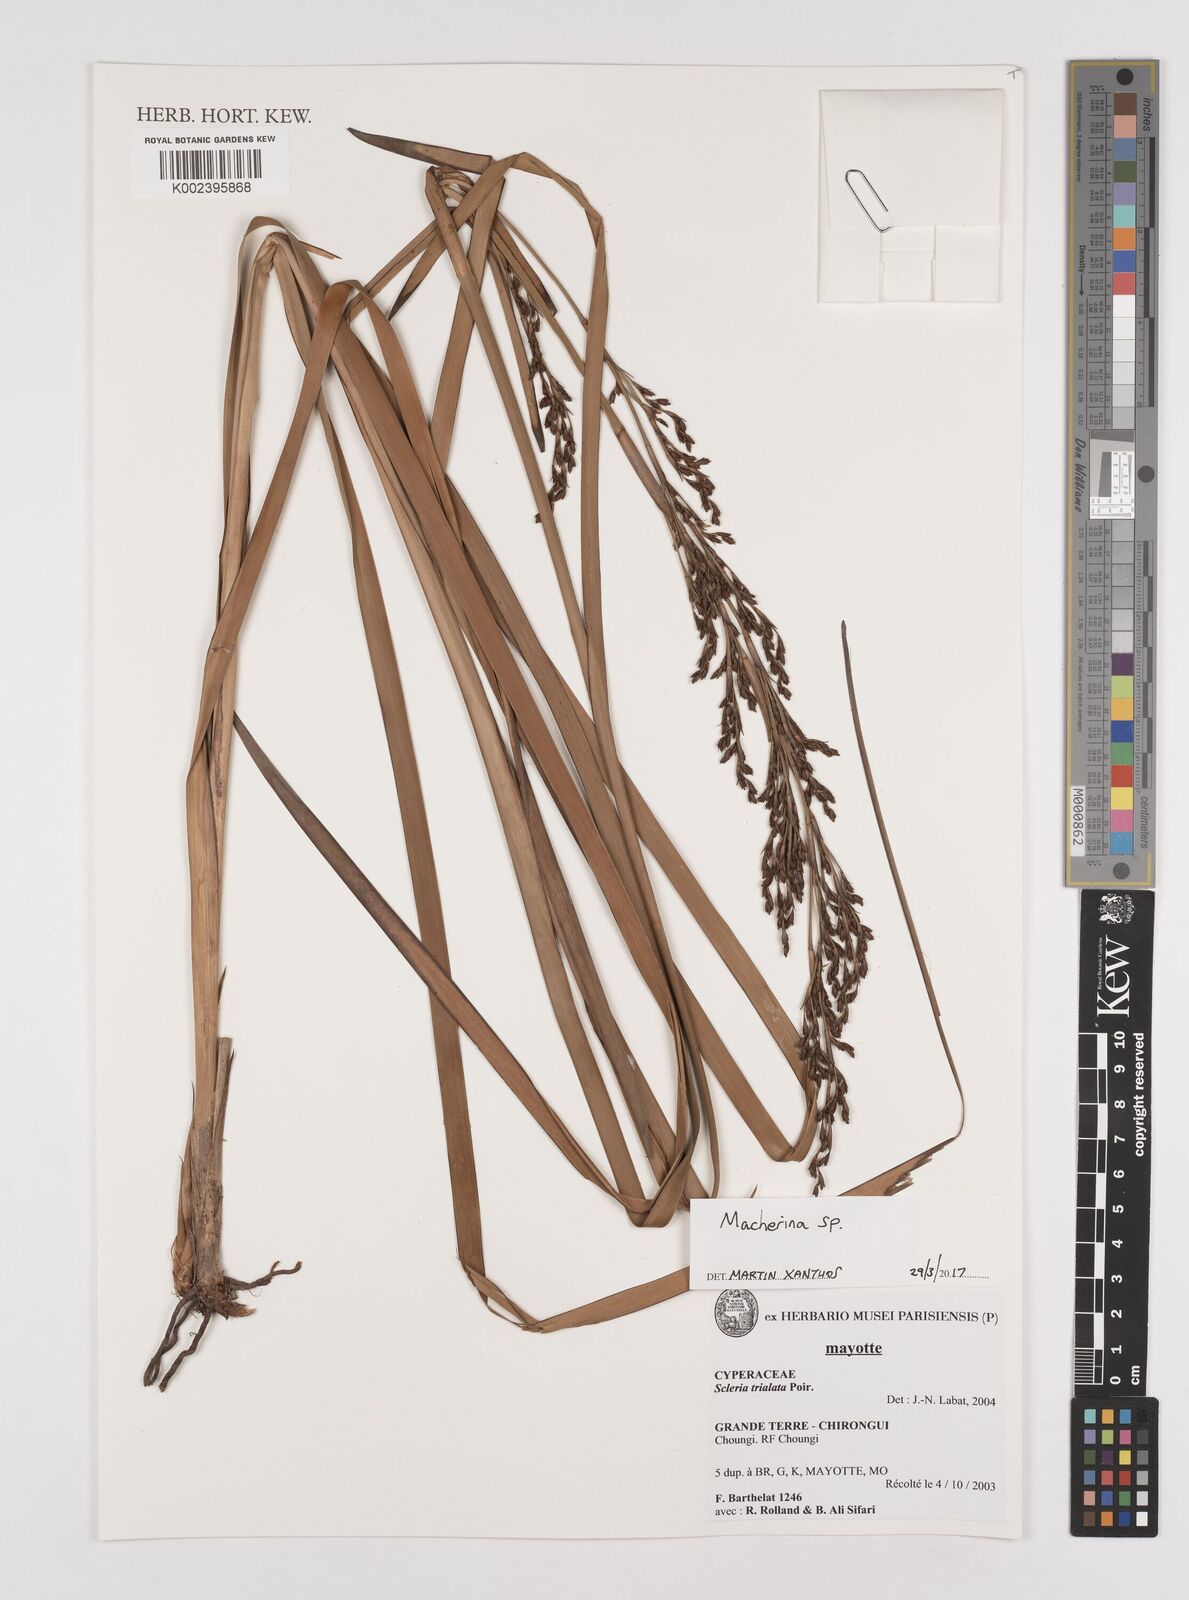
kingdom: Plantae
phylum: Tracheophyta
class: Liliopsida
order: Poales
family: Cyperaceae
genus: Machaerina
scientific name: Machaerina
